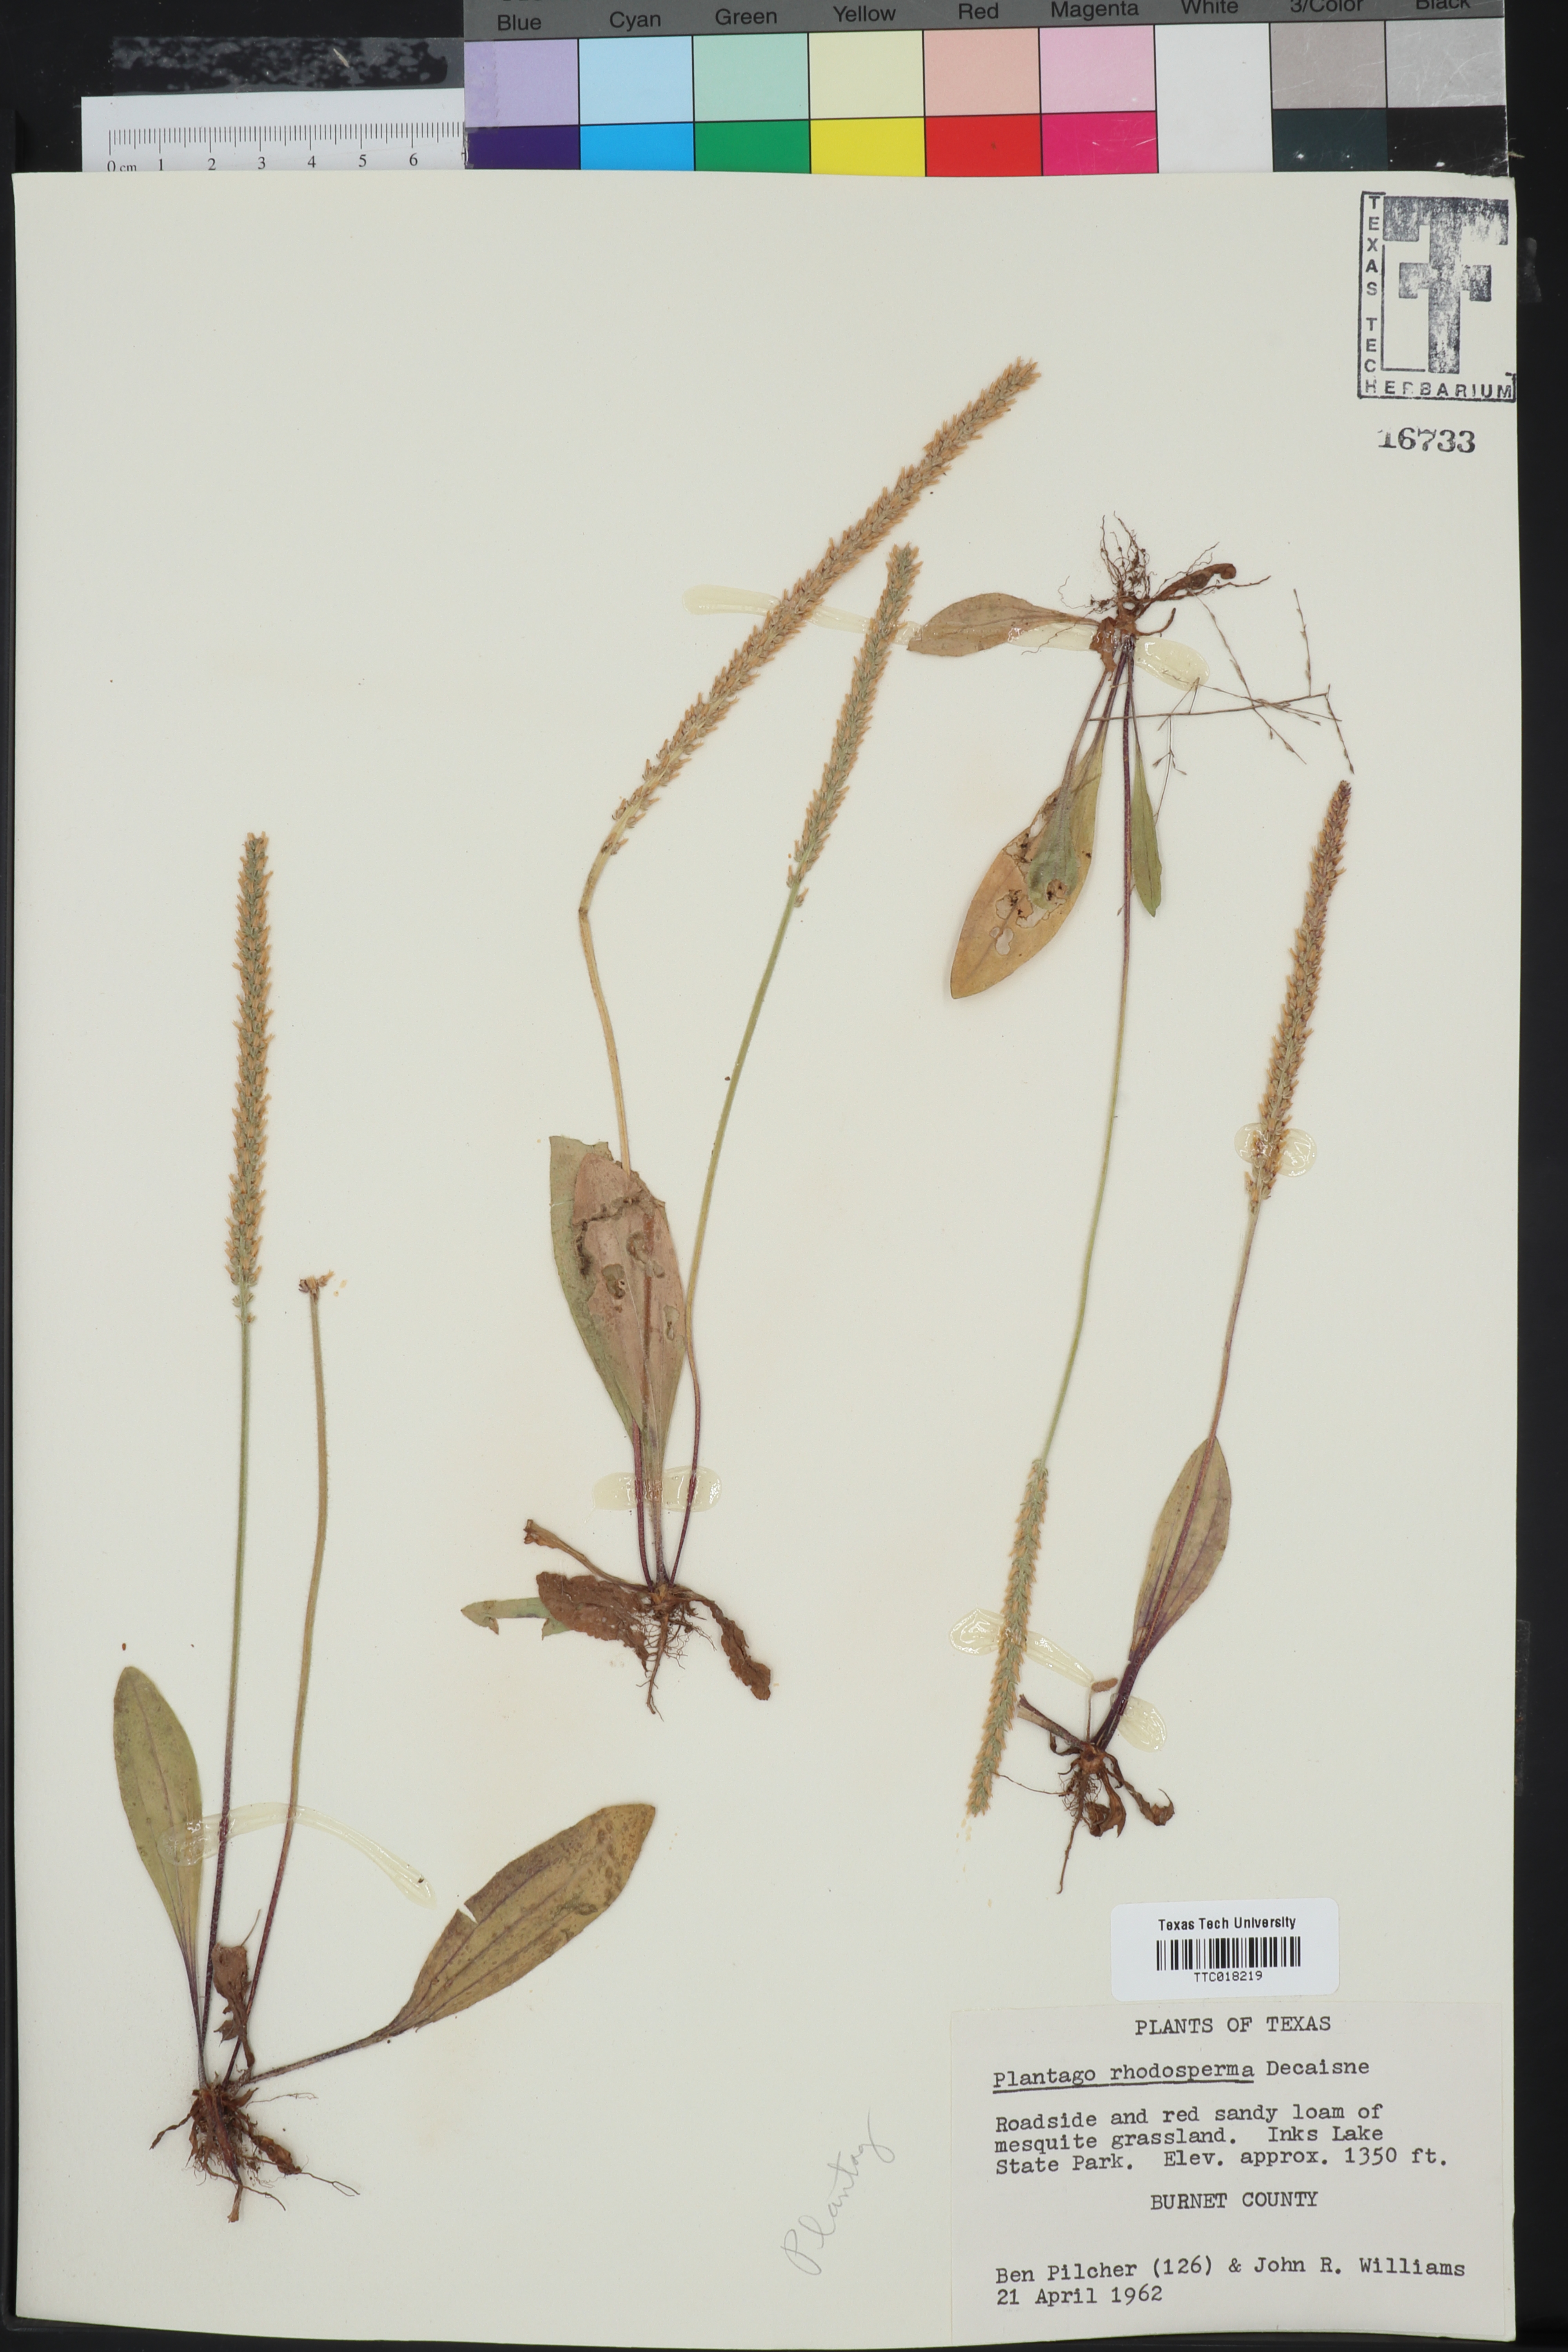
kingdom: Plantae
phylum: Tracheophyta
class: Magnoliopsida
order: Lamiales
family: Plantaginaceae
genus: Plantago
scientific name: Plantago rhodosperma
